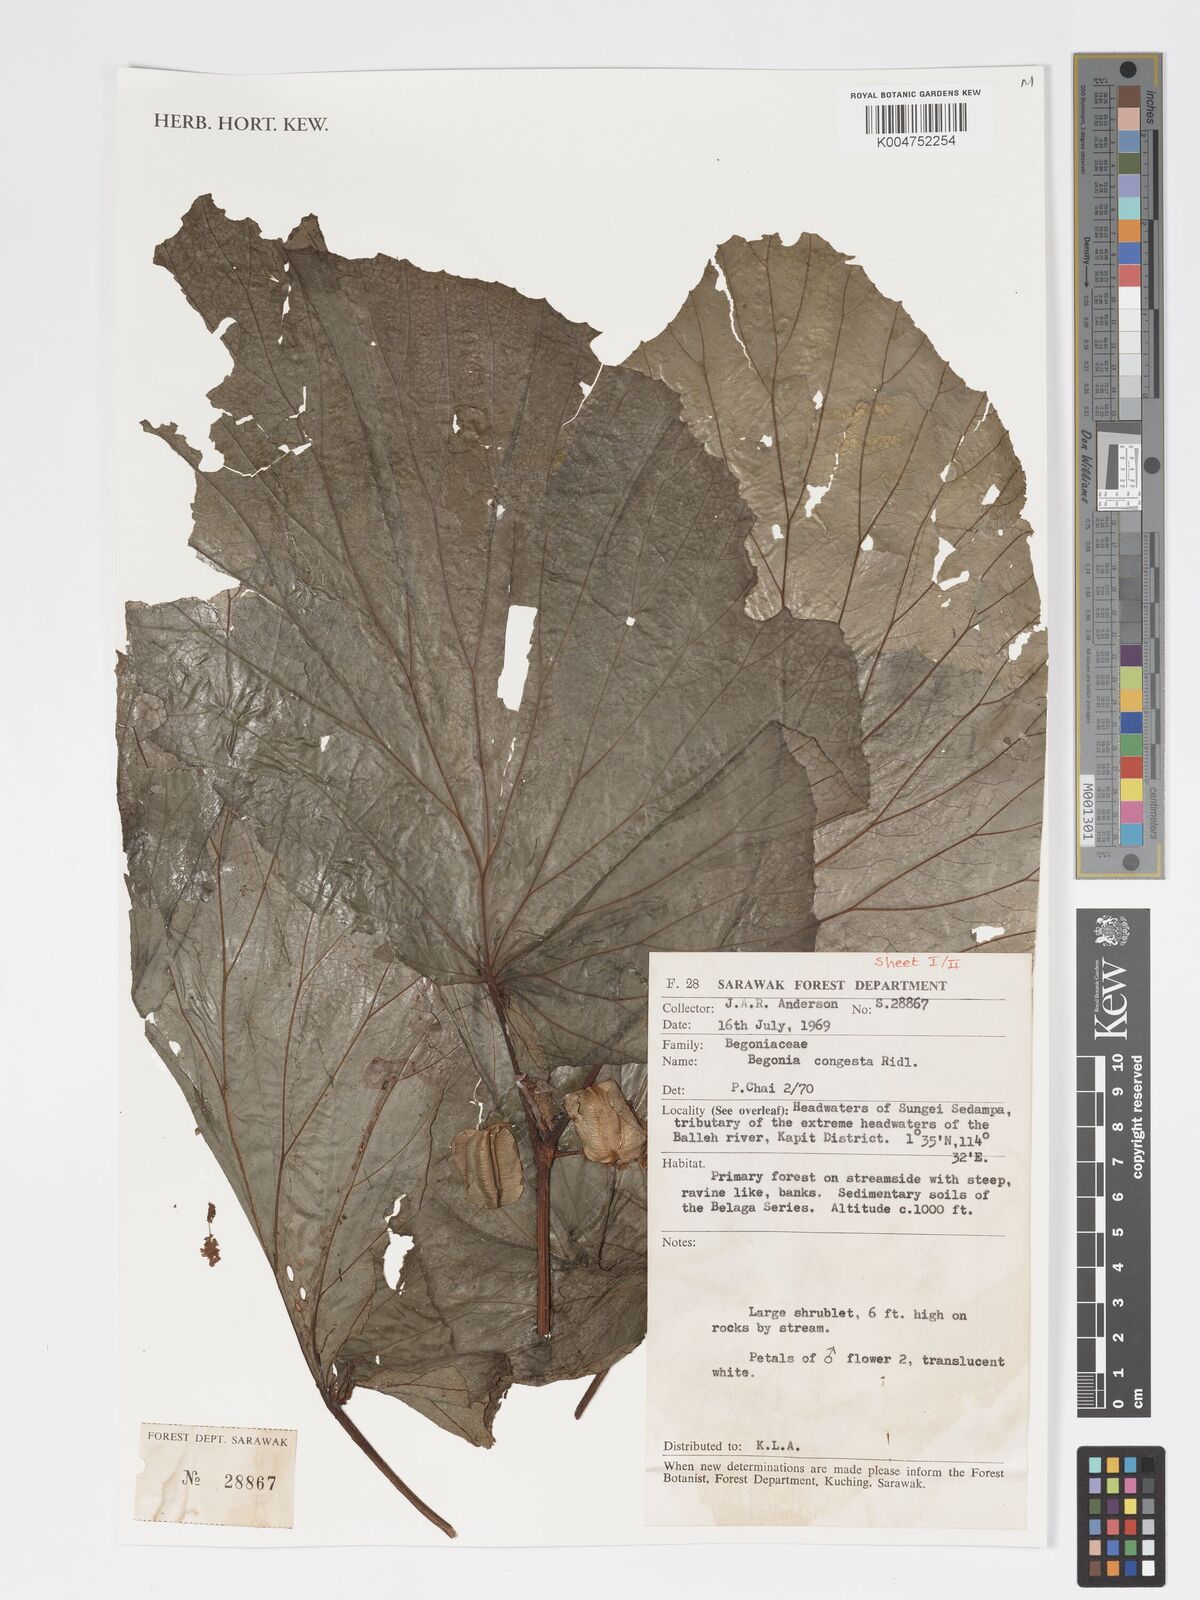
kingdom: Plantae
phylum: Tracheophyta
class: Magnoliopsida
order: Cucurbitales
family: Begoniaceae
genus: Begonia
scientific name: Begonia congesta
